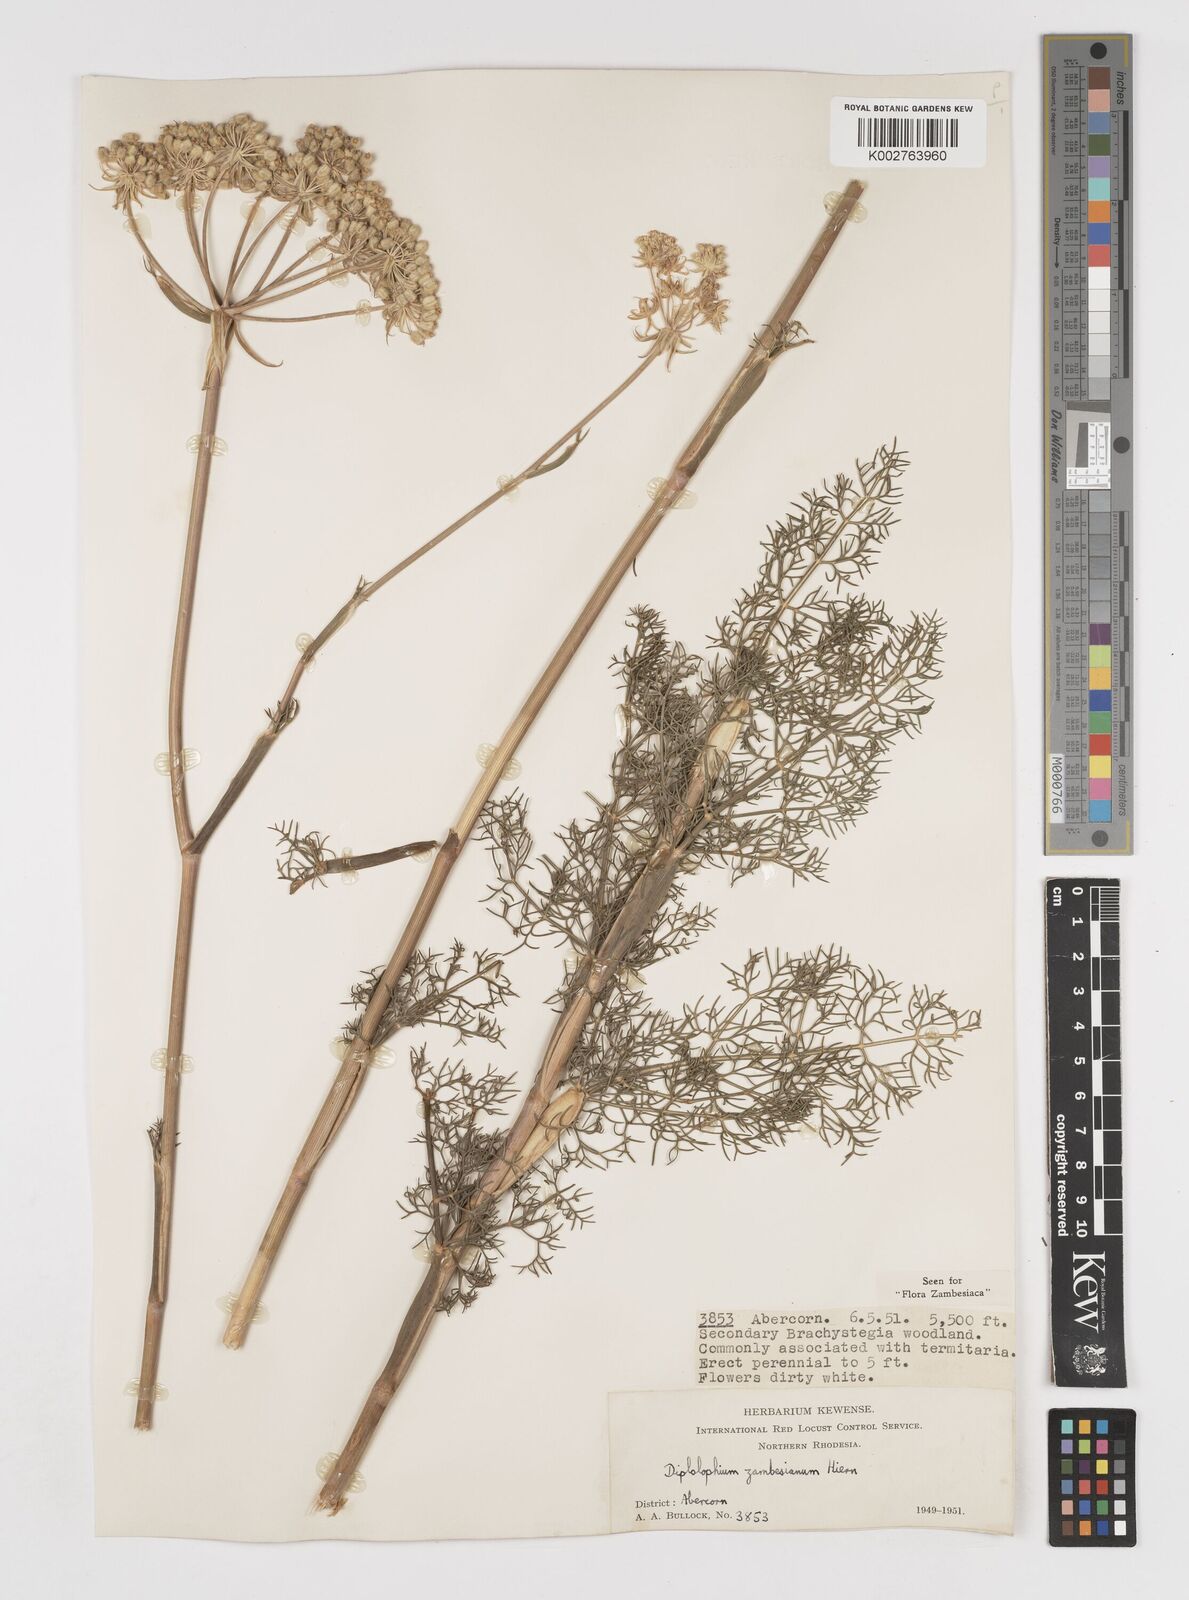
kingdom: Plantae
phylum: Tracheophyta
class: Magnoliopsida
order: Apiales
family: Apiaceae
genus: Diplolophium
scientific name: Diplolophium zambesianum
